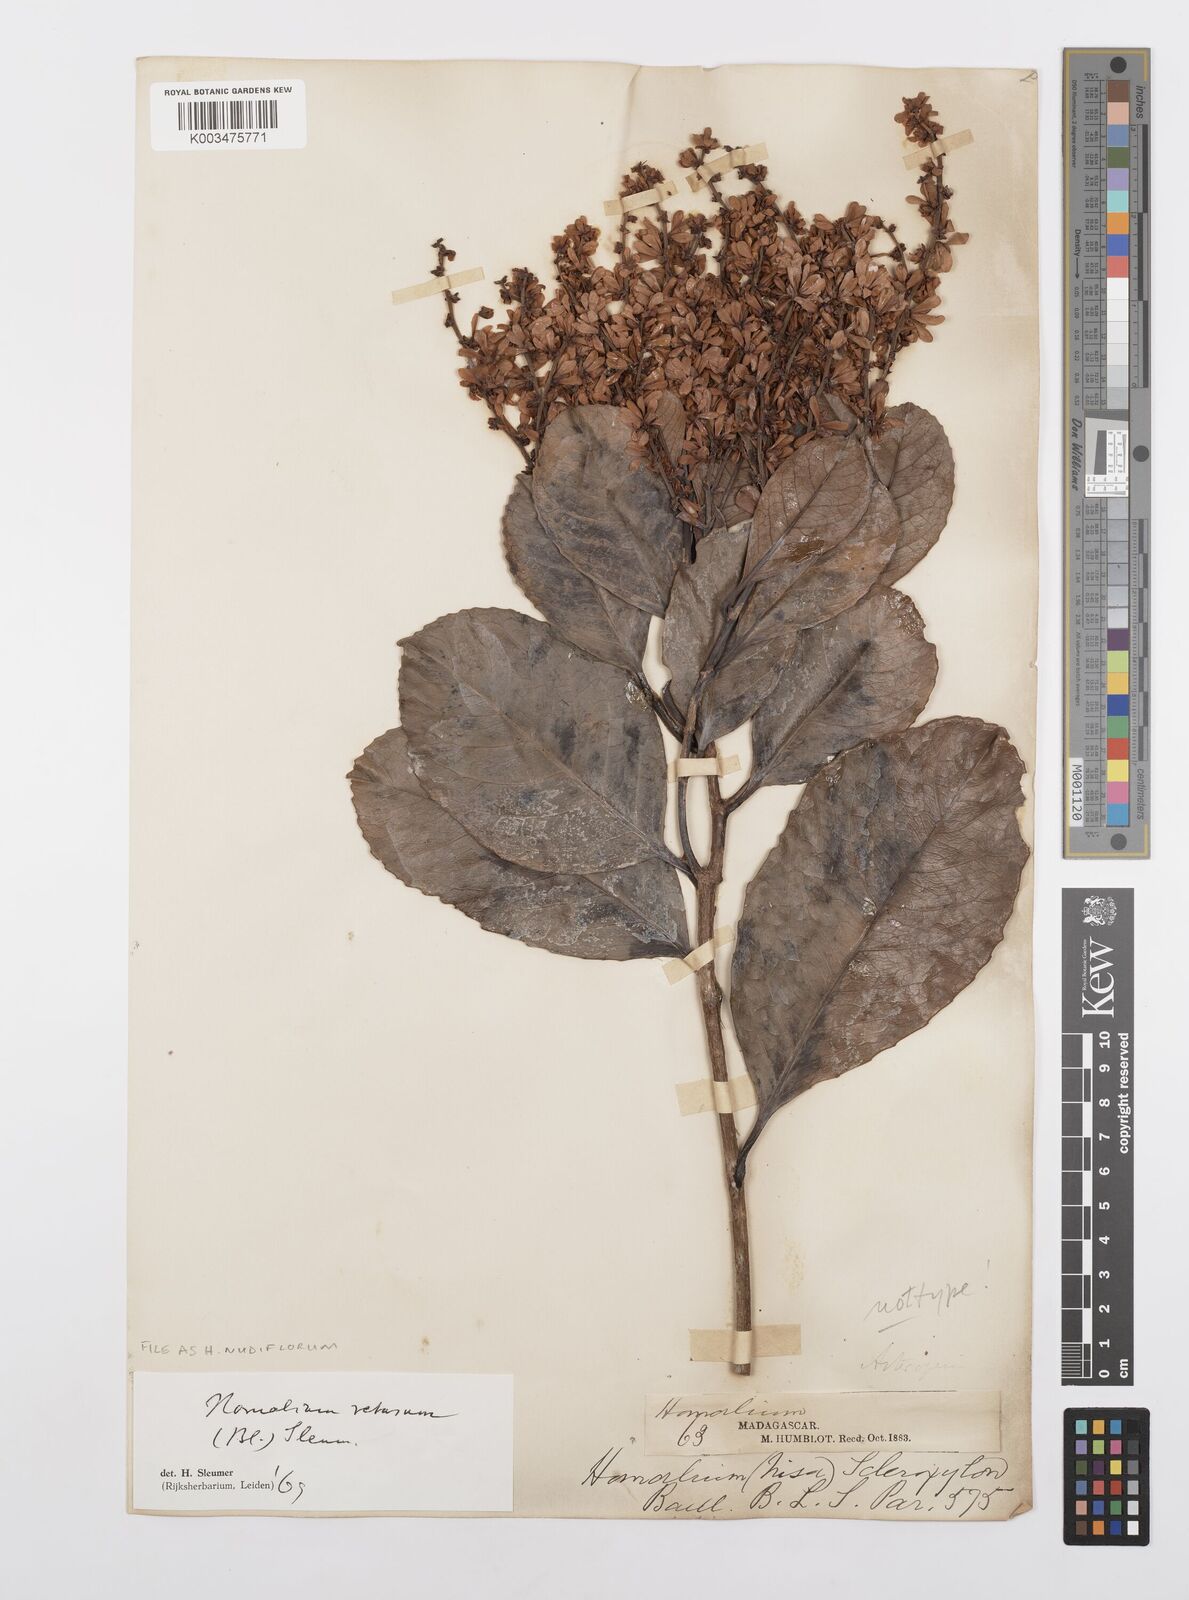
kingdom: Plantae
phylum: Tracheophyta
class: Magnoliopsida
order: Malpighiales
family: Salicaceae
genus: Homalium
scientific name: Homalium nudiflorum
